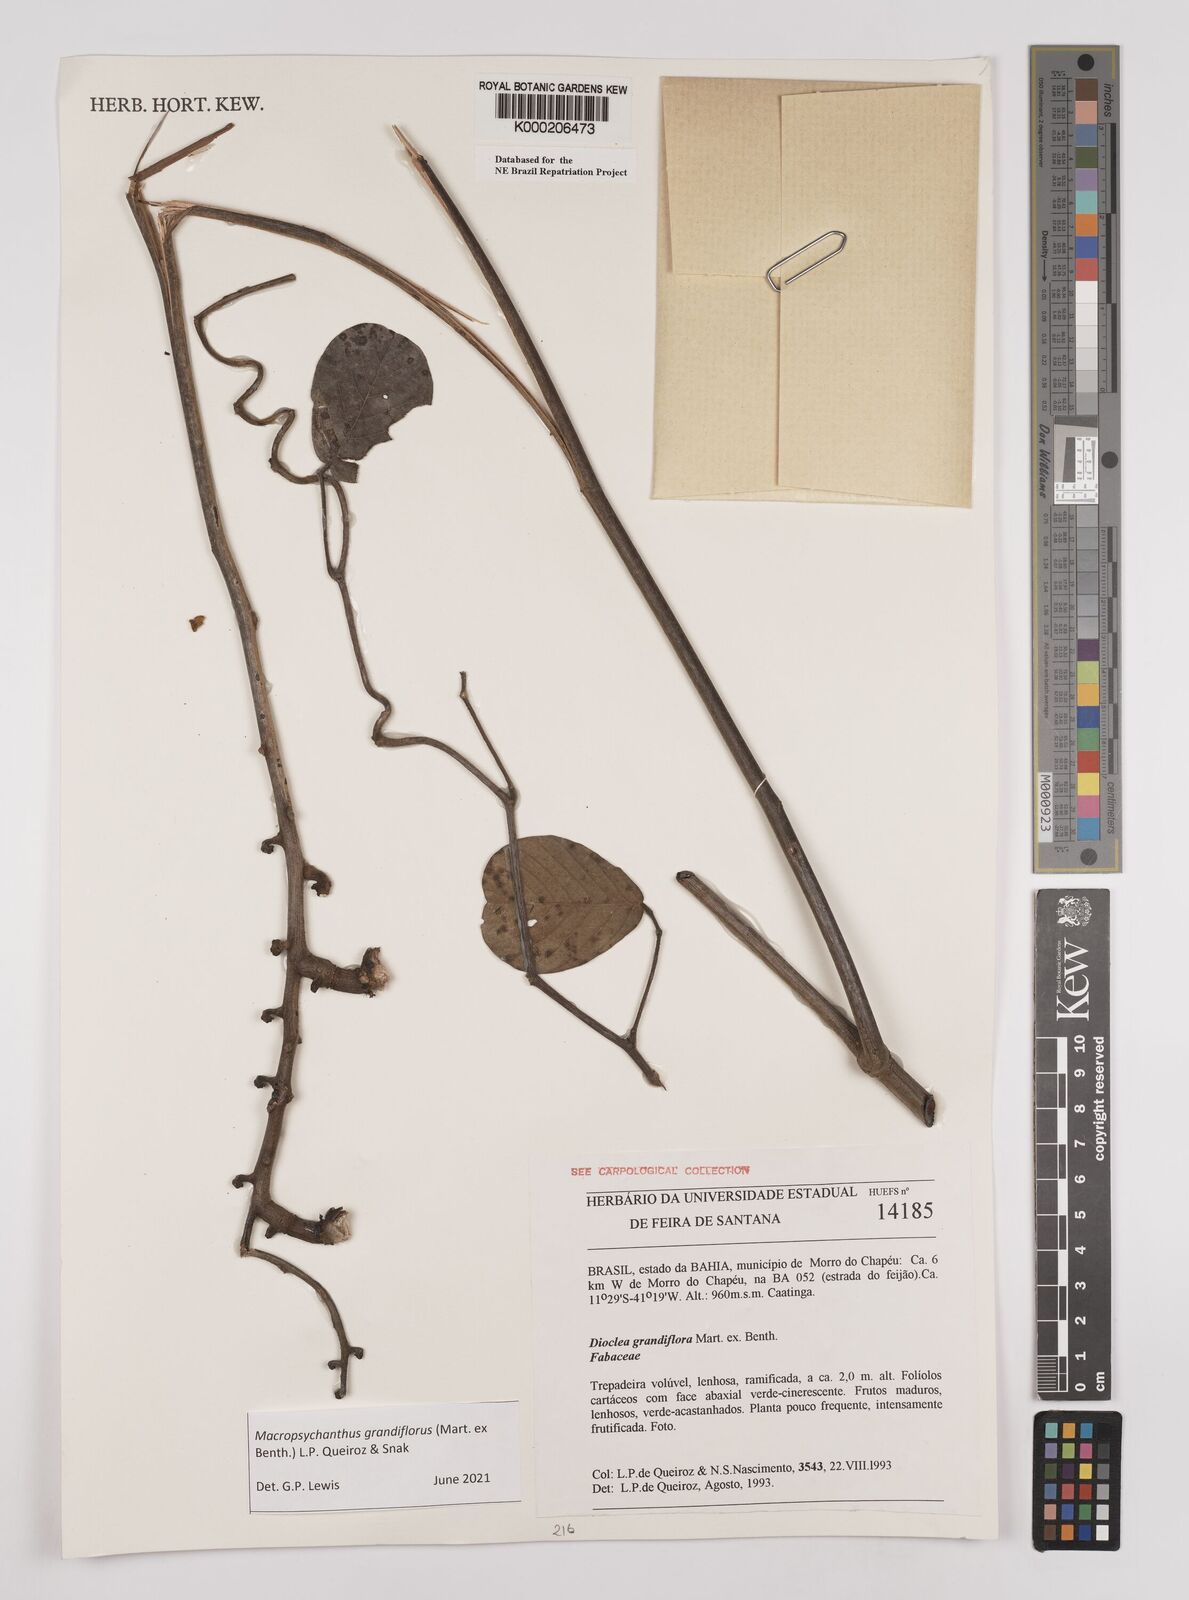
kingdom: Plantae
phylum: Tracheophyta
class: Magnoliopsida
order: Fabales
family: Fabaceae
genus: Macropsychanthus
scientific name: Macropsychanthus grandiflorus
